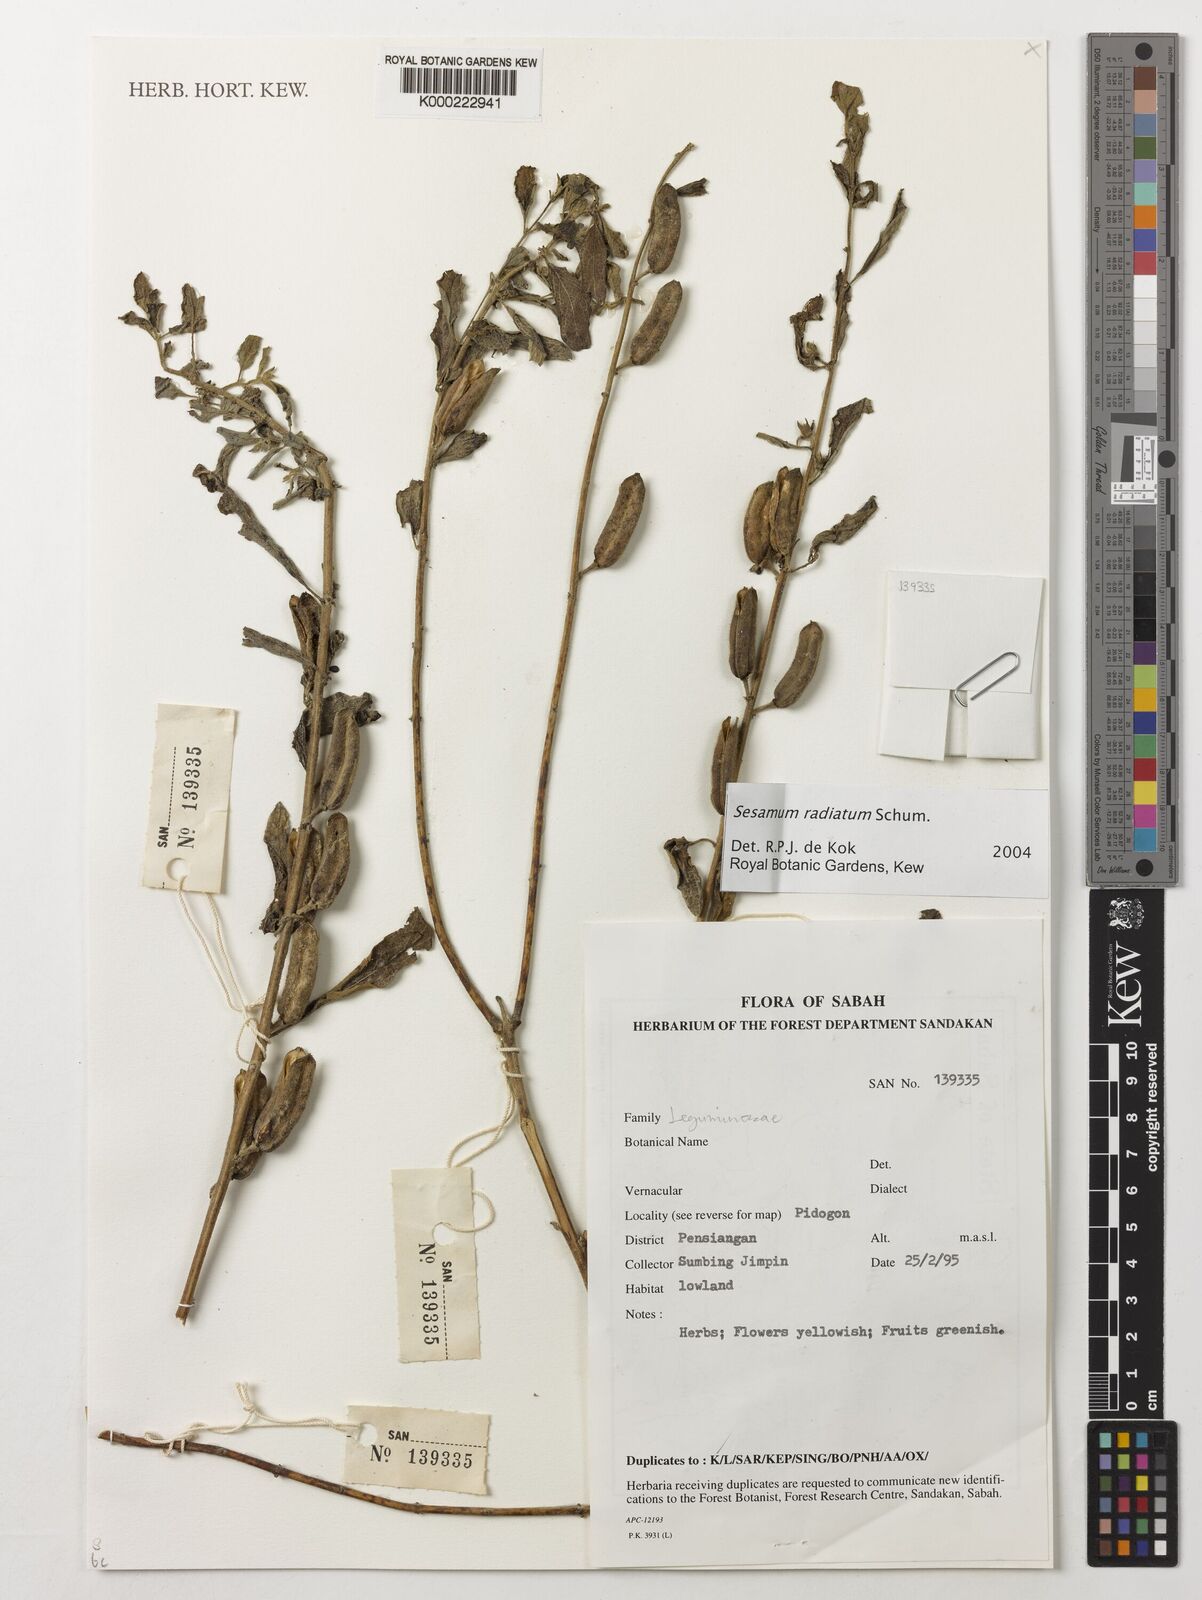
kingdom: Plantae
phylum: Tracheophyta
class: Magnoliopsida
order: Lamiales
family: Pedaliaceae
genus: Sesamum
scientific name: Sesamum
